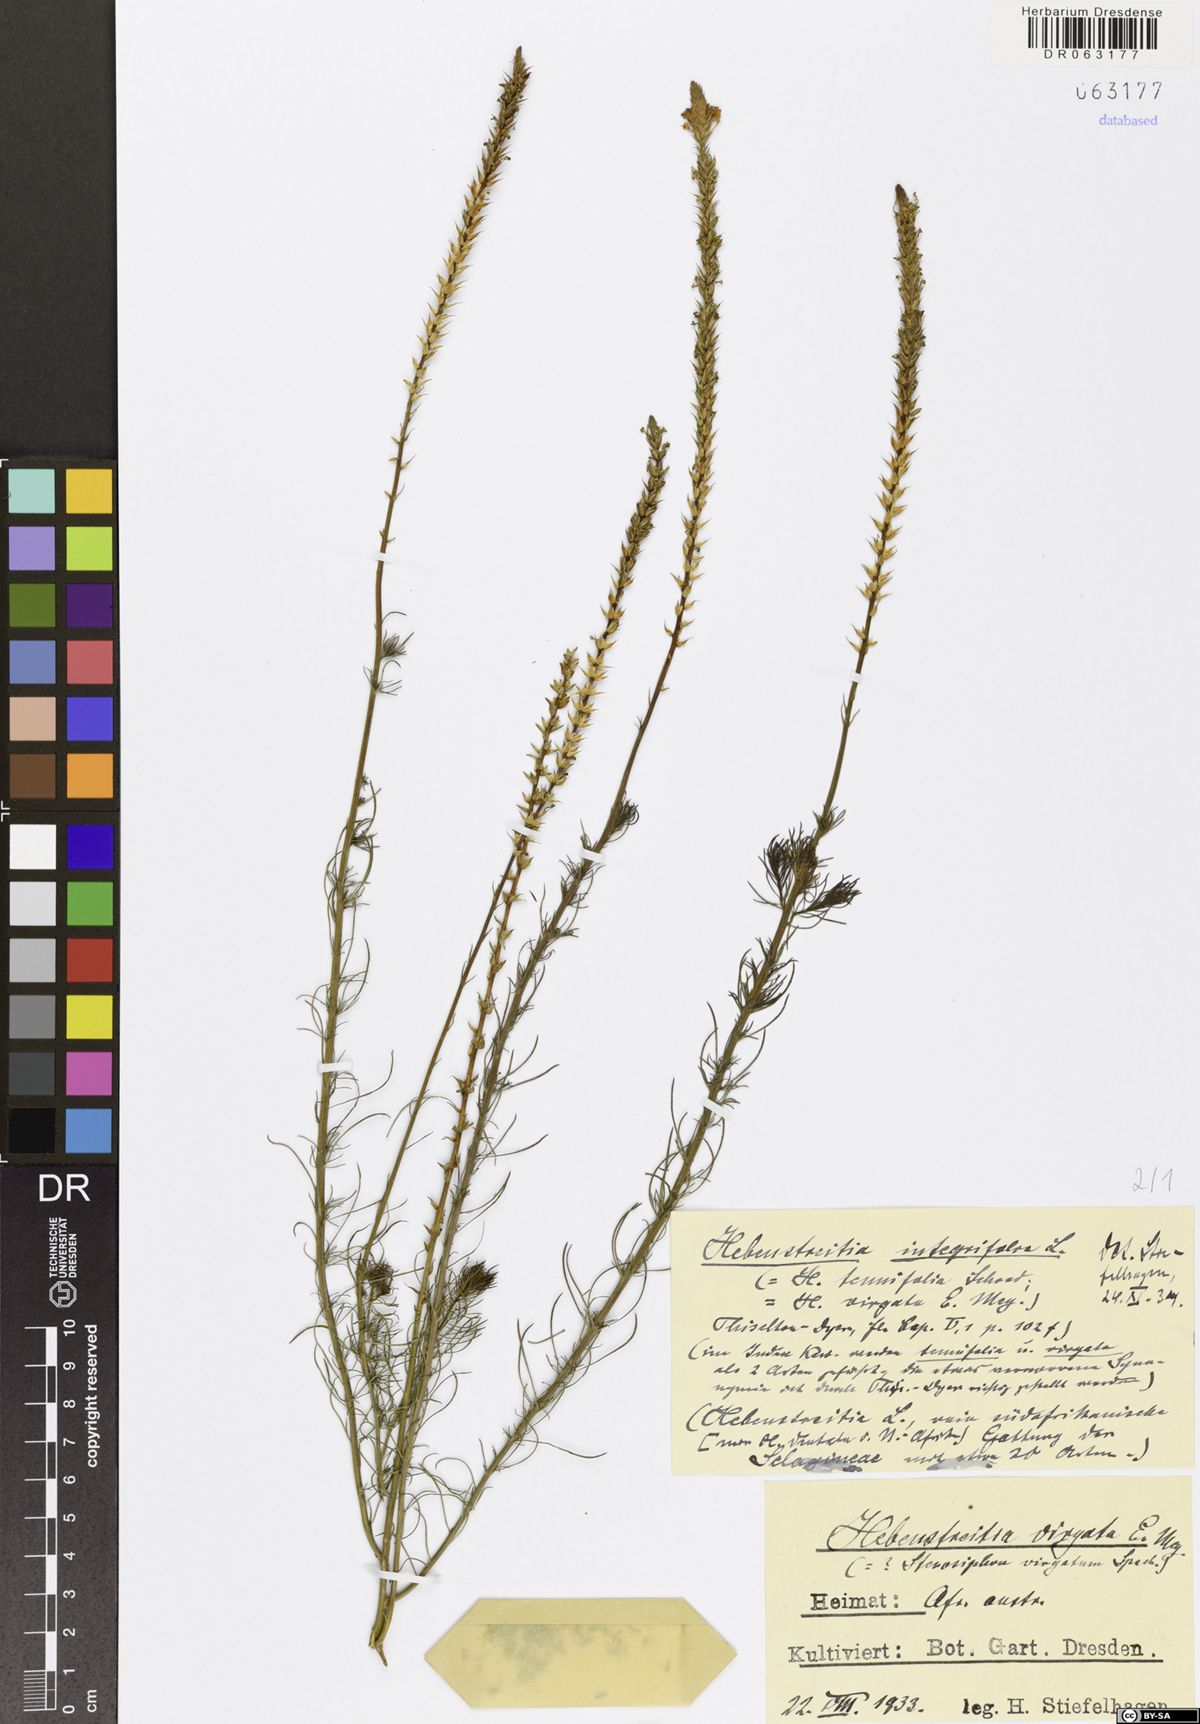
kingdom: Plantae
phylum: Tracheophyta
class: Magnoliopsida
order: Lamiales
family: Scrophulariaceae
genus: Hebenstretia
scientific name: Hebenstretia integrifolia
